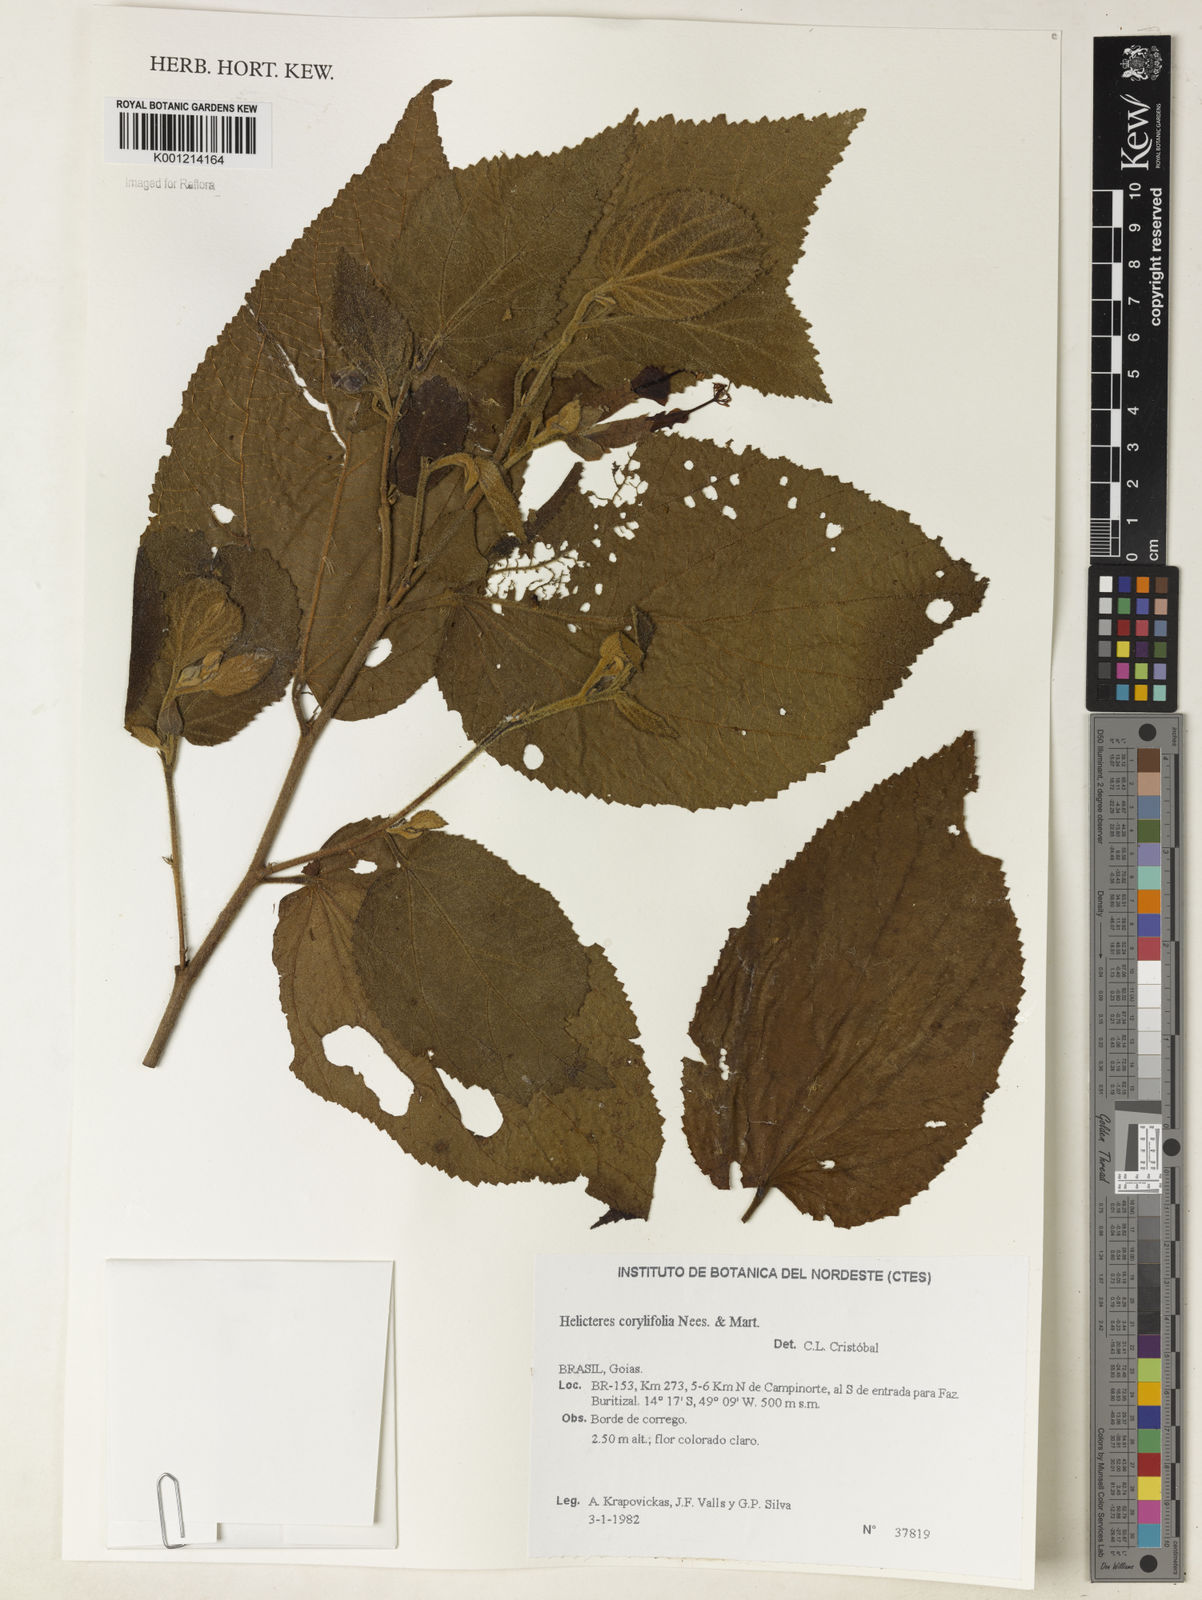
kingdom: Plantae
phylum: Tracheophyta
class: Magnoliopsida
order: Malvales
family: Malvaceae
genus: Helicteres
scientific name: Helicteres corylifolia
